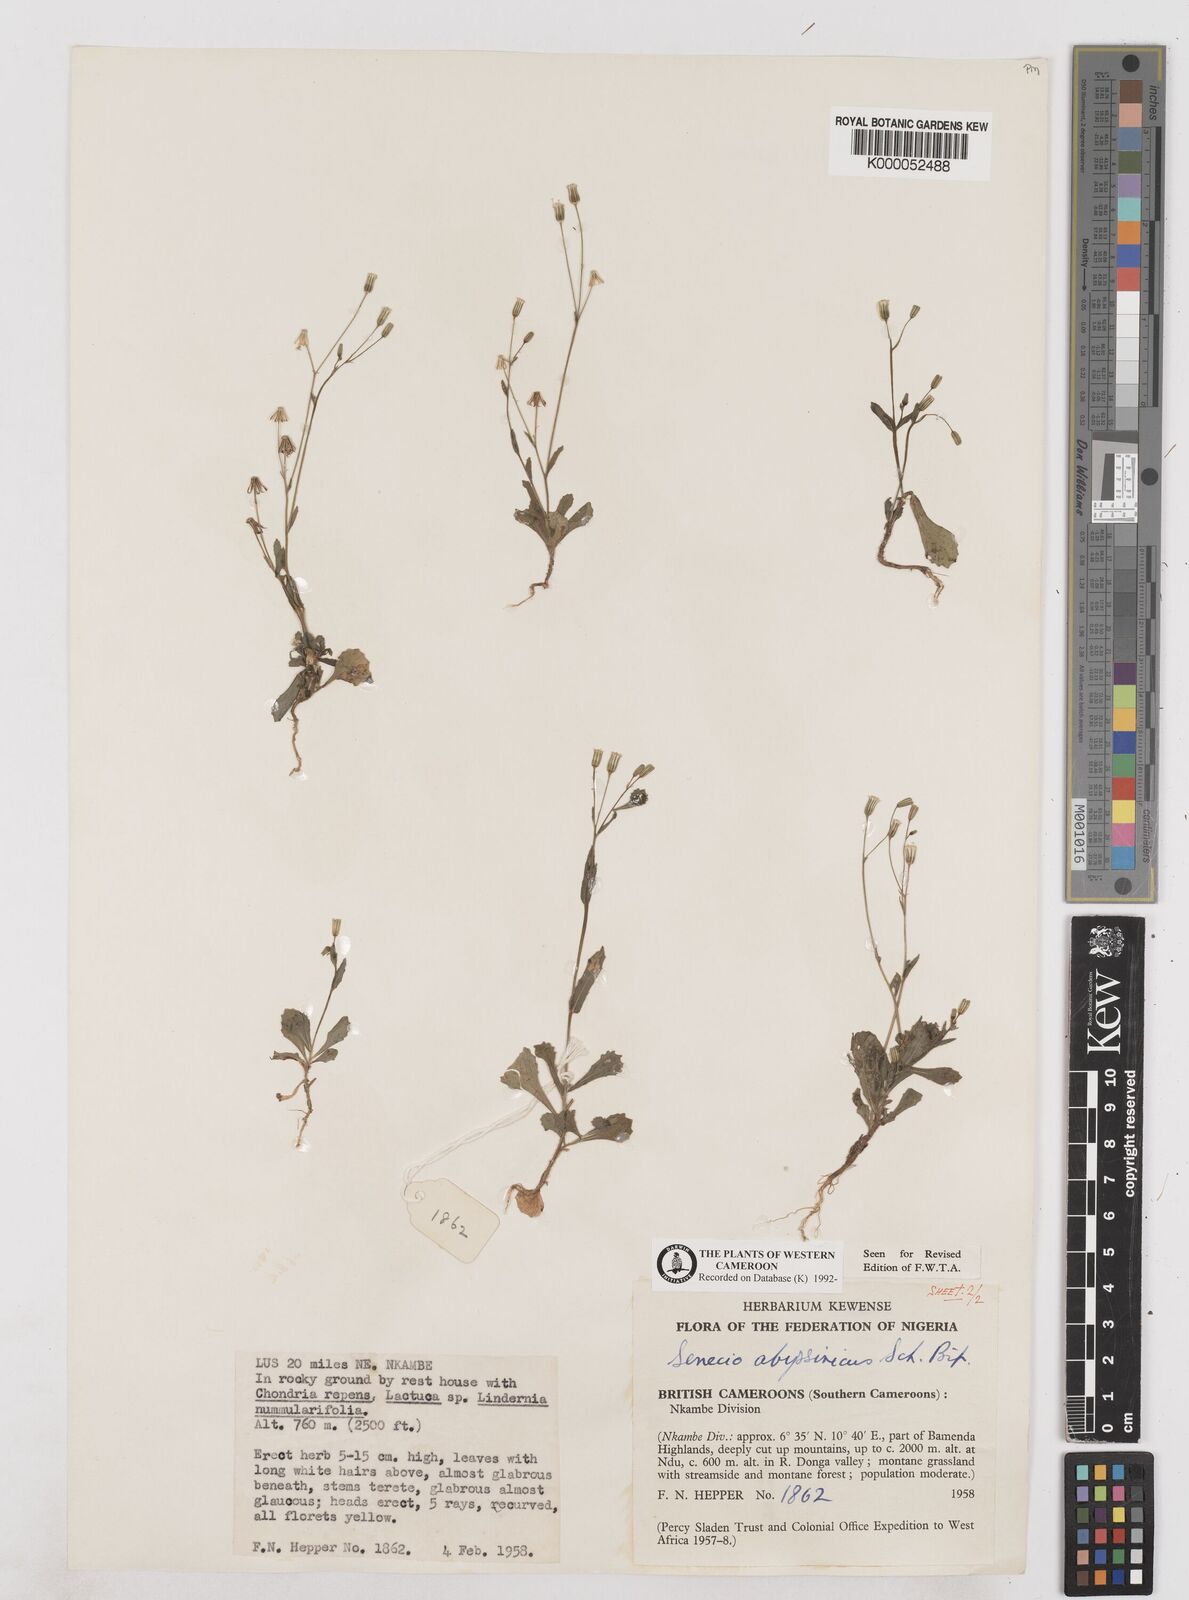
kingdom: Plantae
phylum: Tracheophyta
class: Magnoliopsida
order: Asterales
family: Asteraceae
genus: Emilia
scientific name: Emilia abyssinica
